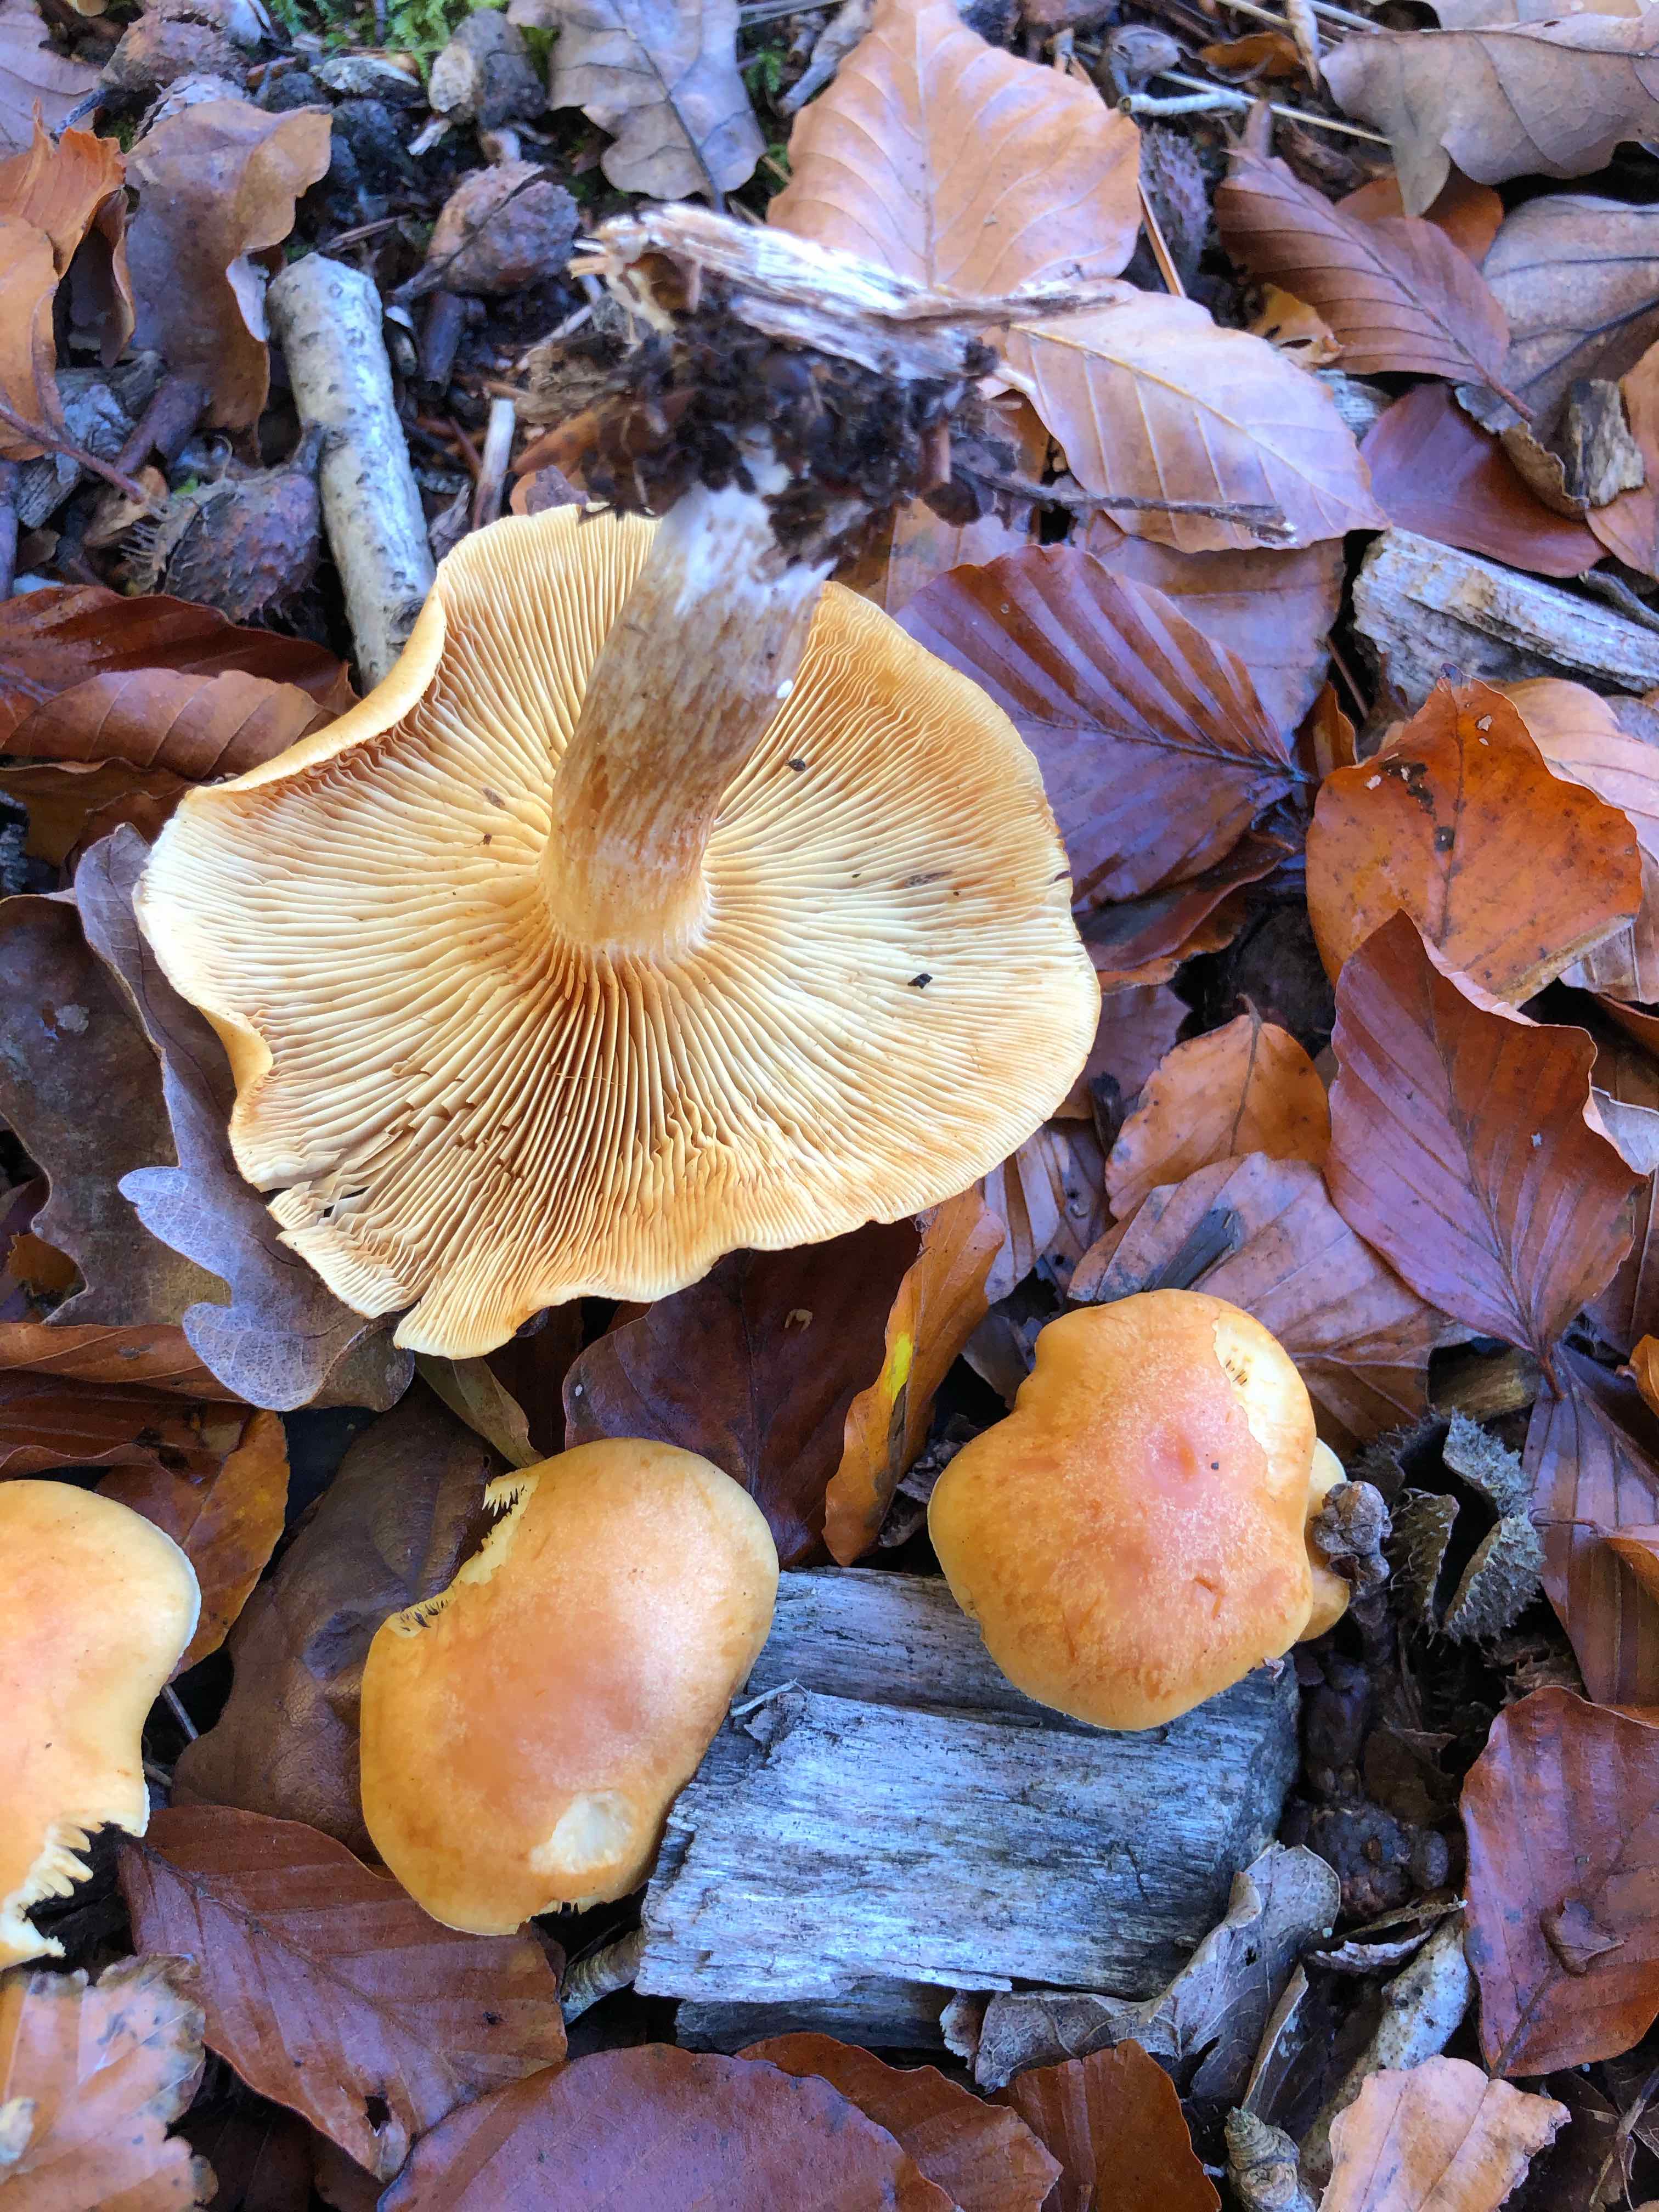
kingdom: Fungi
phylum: Basidiomycota
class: Agaricomycetes
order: Agaricales
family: Hymenogastraceae
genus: Gymnopilus
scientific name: Gymnopilus penetrans
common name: plettet flammehat
